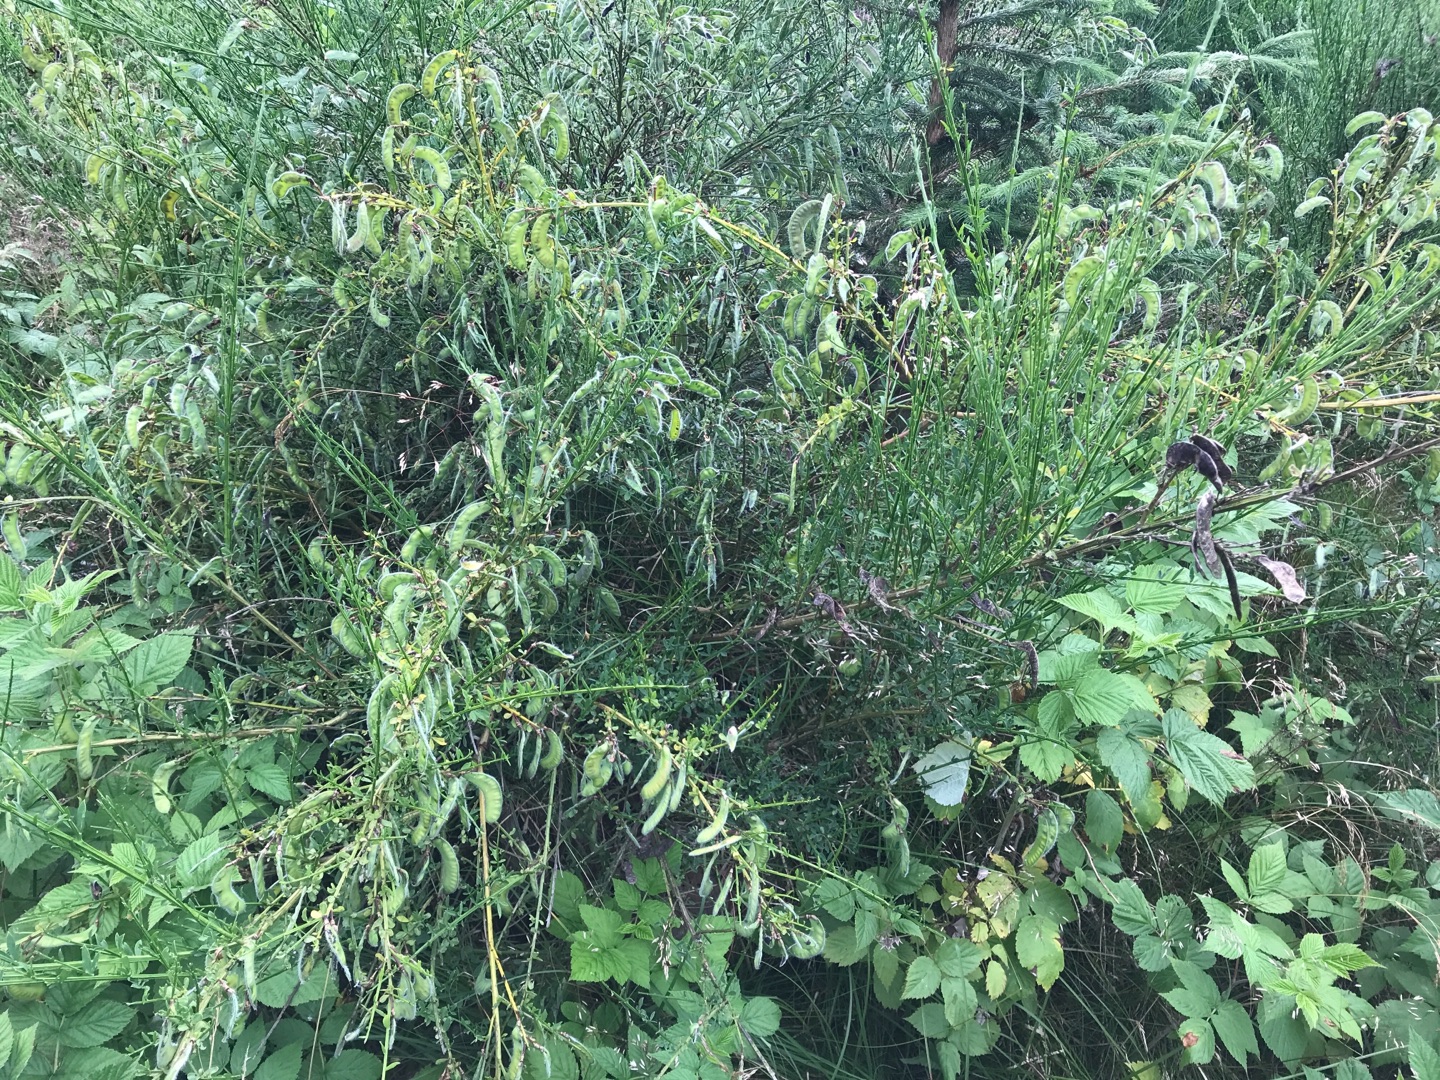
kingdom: Plantae
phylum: Tracheophyta
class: Magnoliopsida
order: Fabales
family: Fabaceae
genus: Cytisus
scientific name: Cytisus scoparius
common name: Almindelig gyvel
